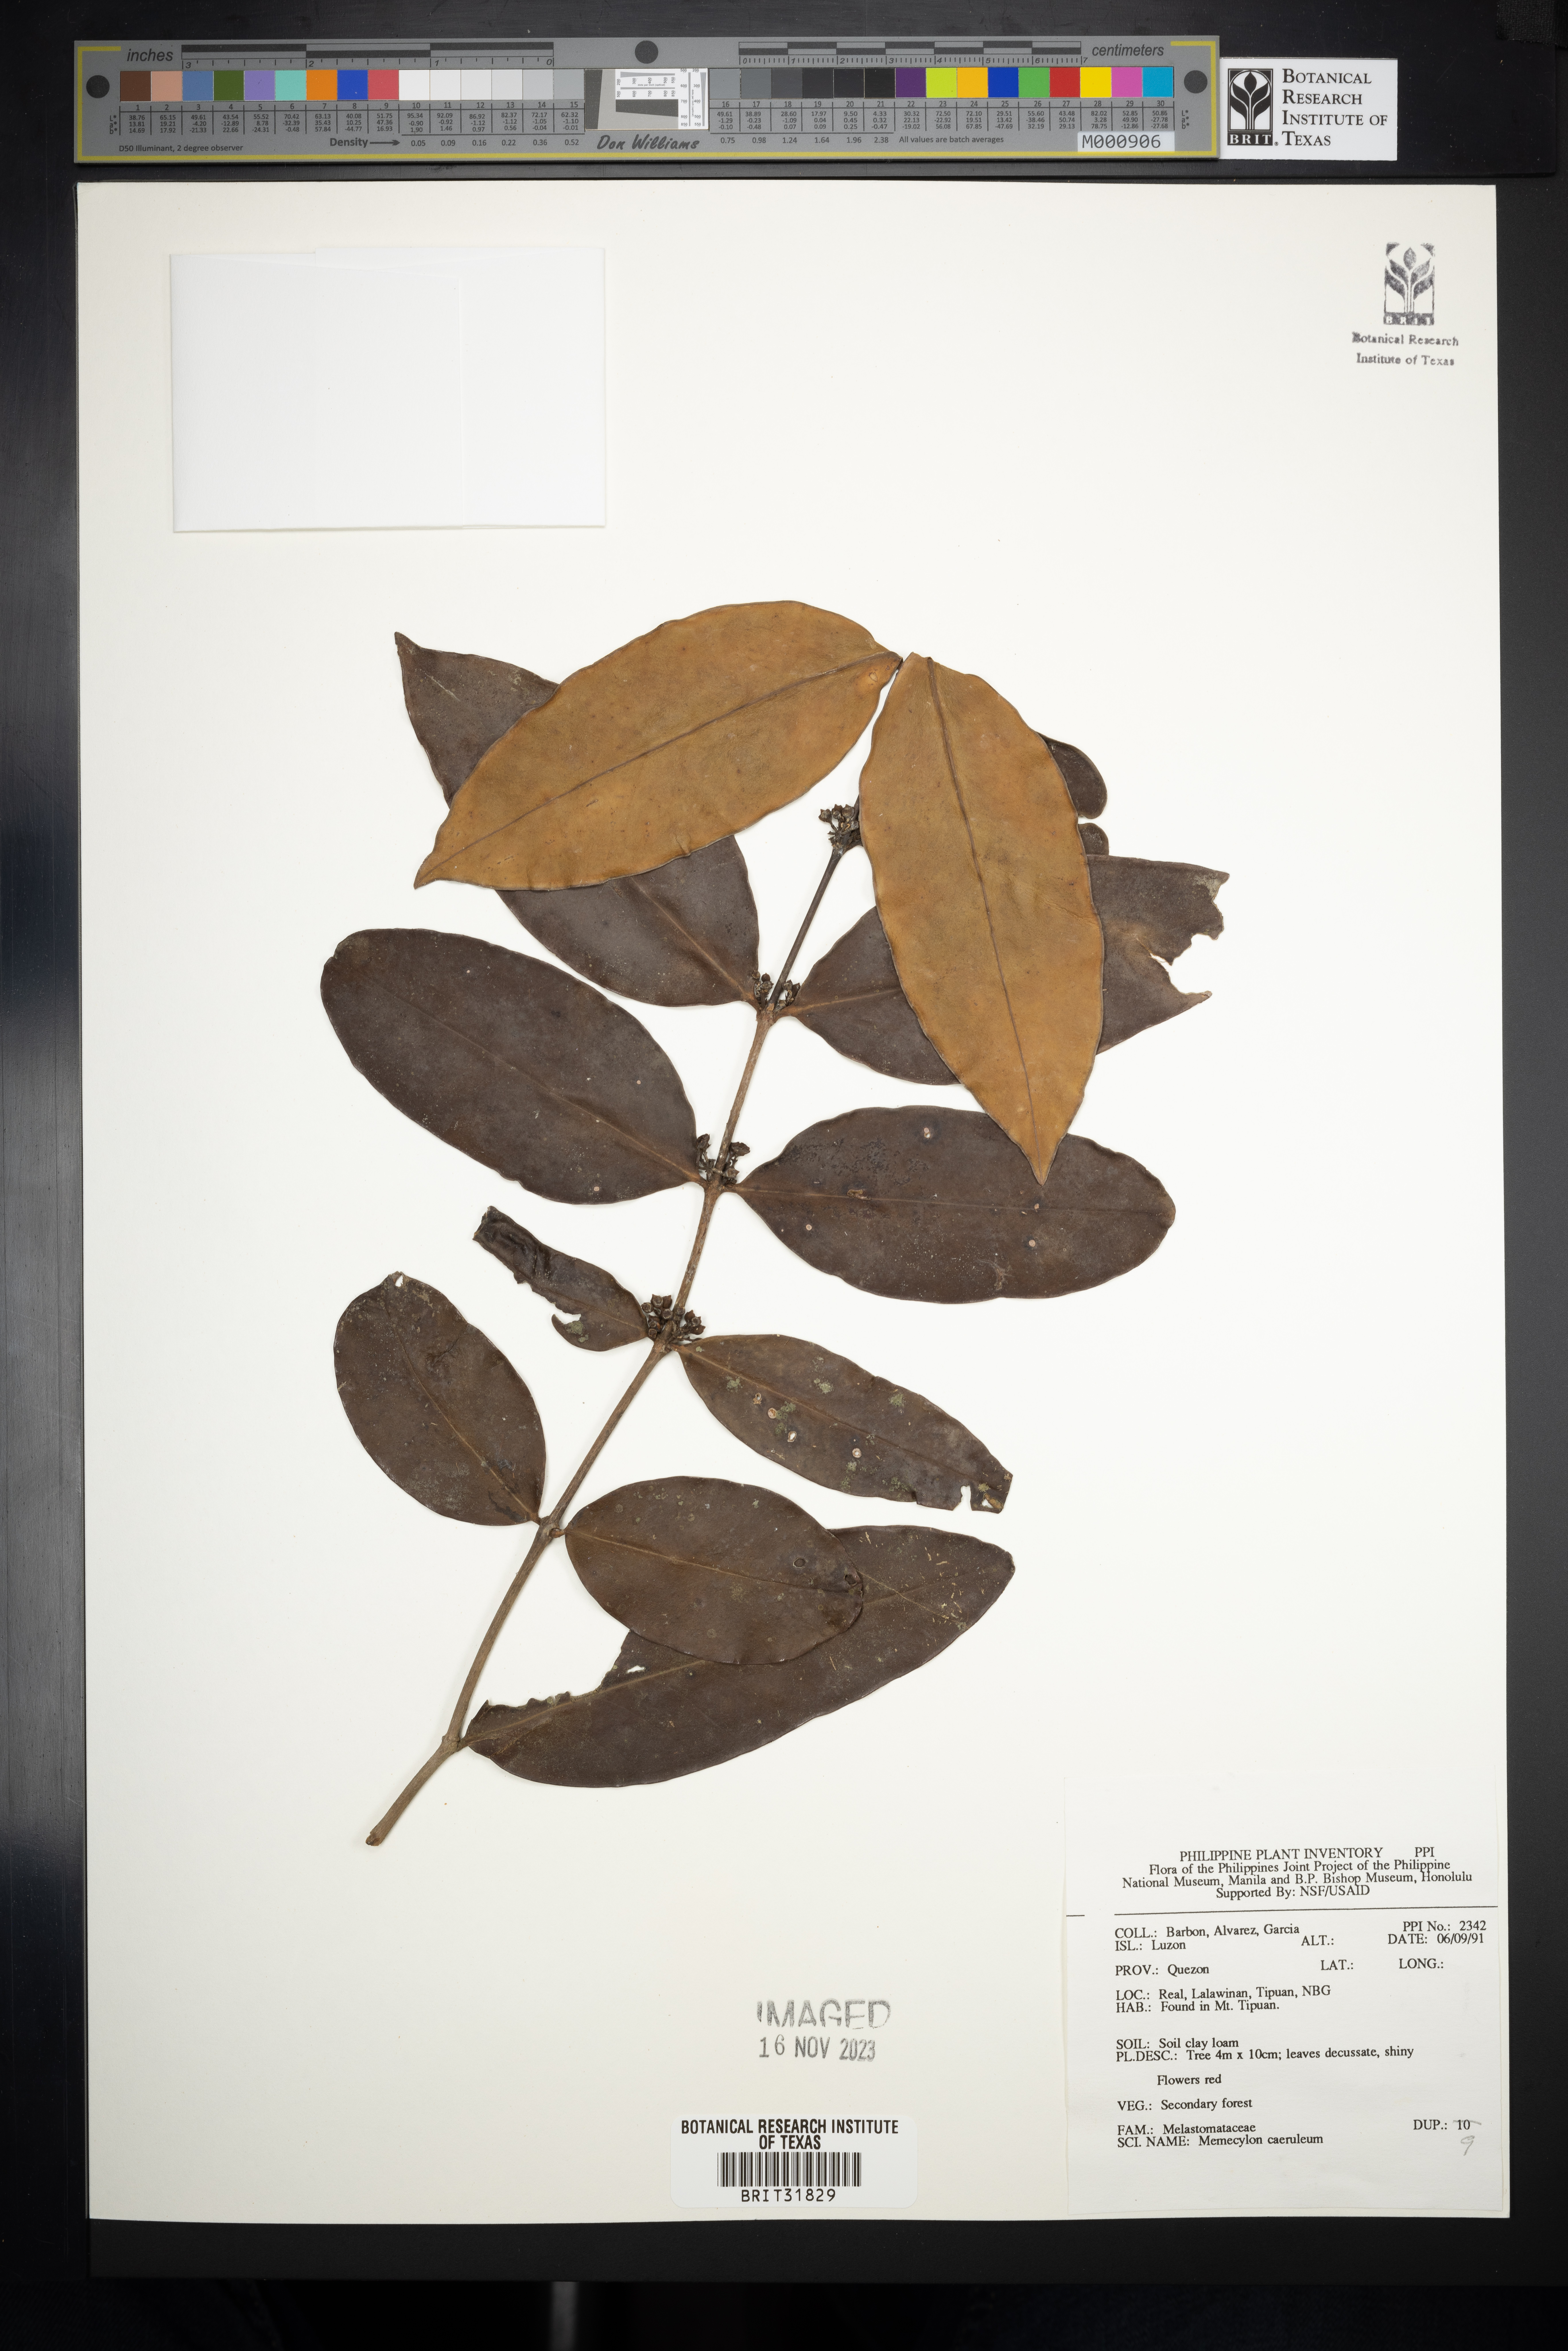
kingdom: Plantae
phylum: Tracheophyta
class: Magnoliopsida
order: Myrtales
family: Melastomataceae
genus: Spathandra
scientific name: Spathandra blakeoides
